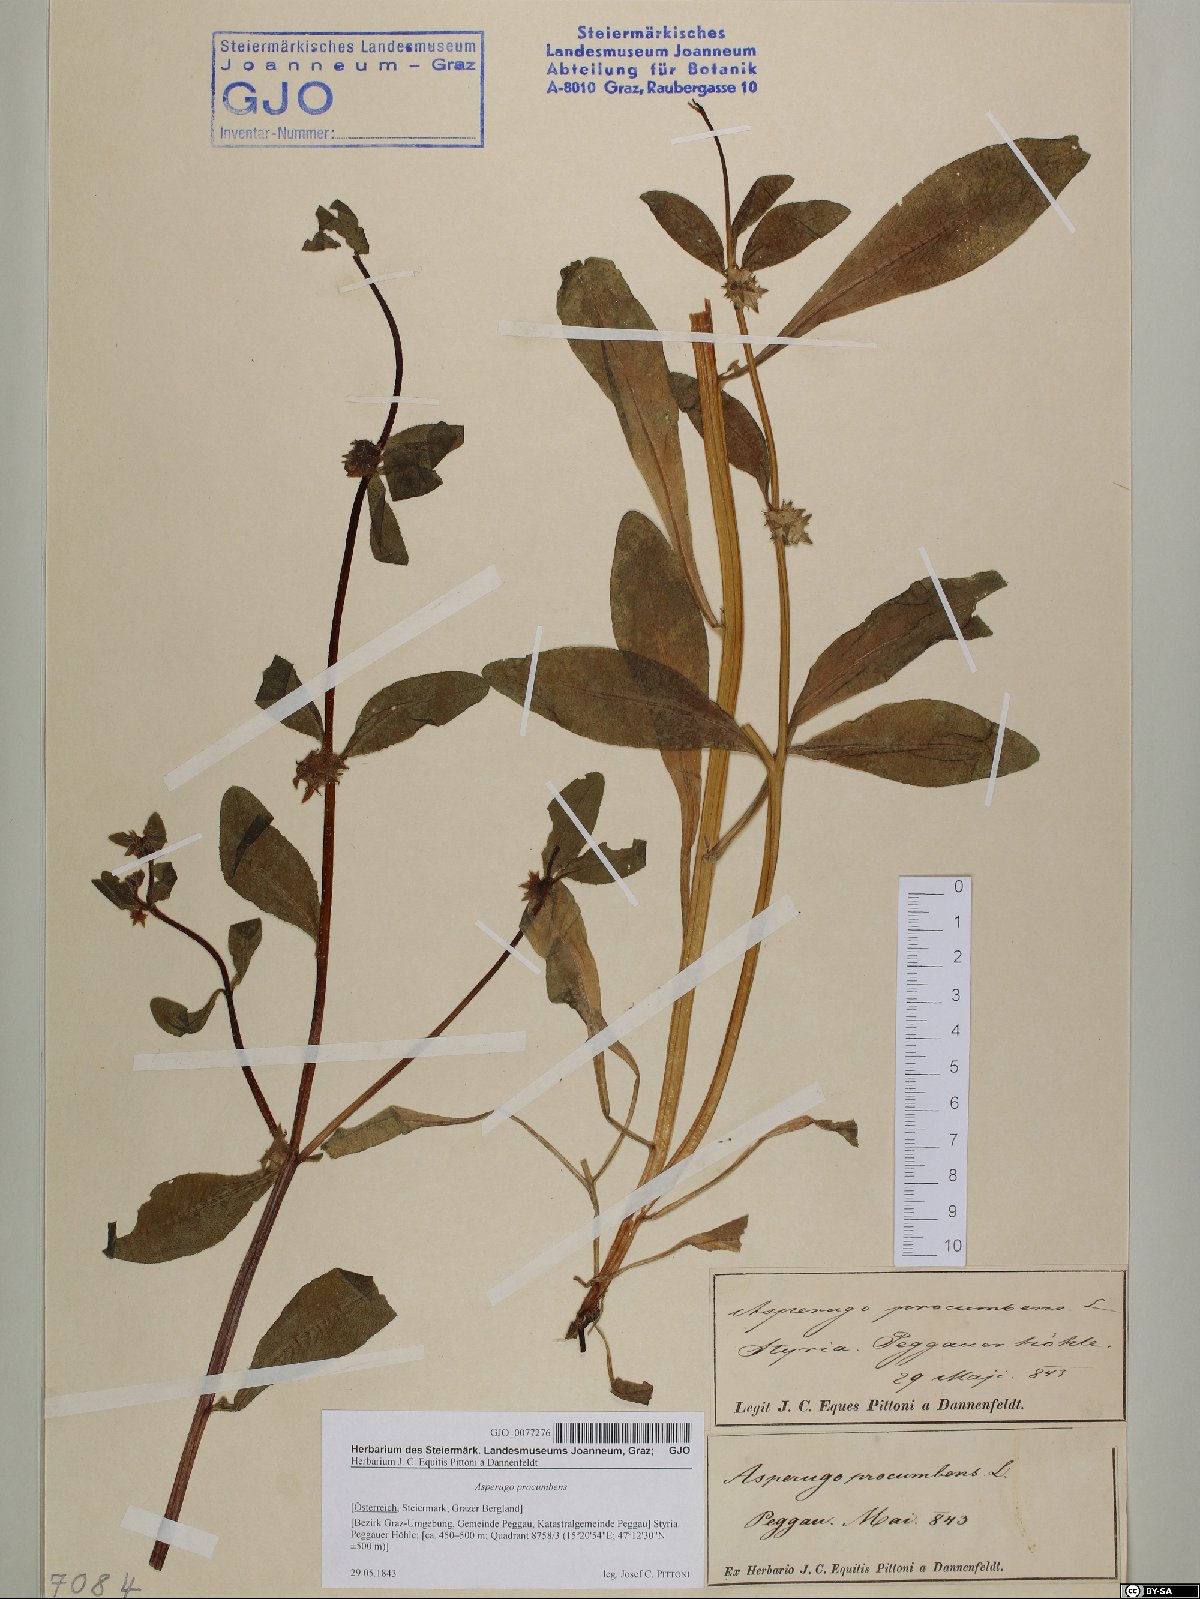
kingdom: Plantae
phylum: Tracheophyta
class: Magnoliopsida
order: Boraginales
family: Boraginaceae
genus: Asperugo
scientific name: Asperugo procumbens
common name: Madwort
